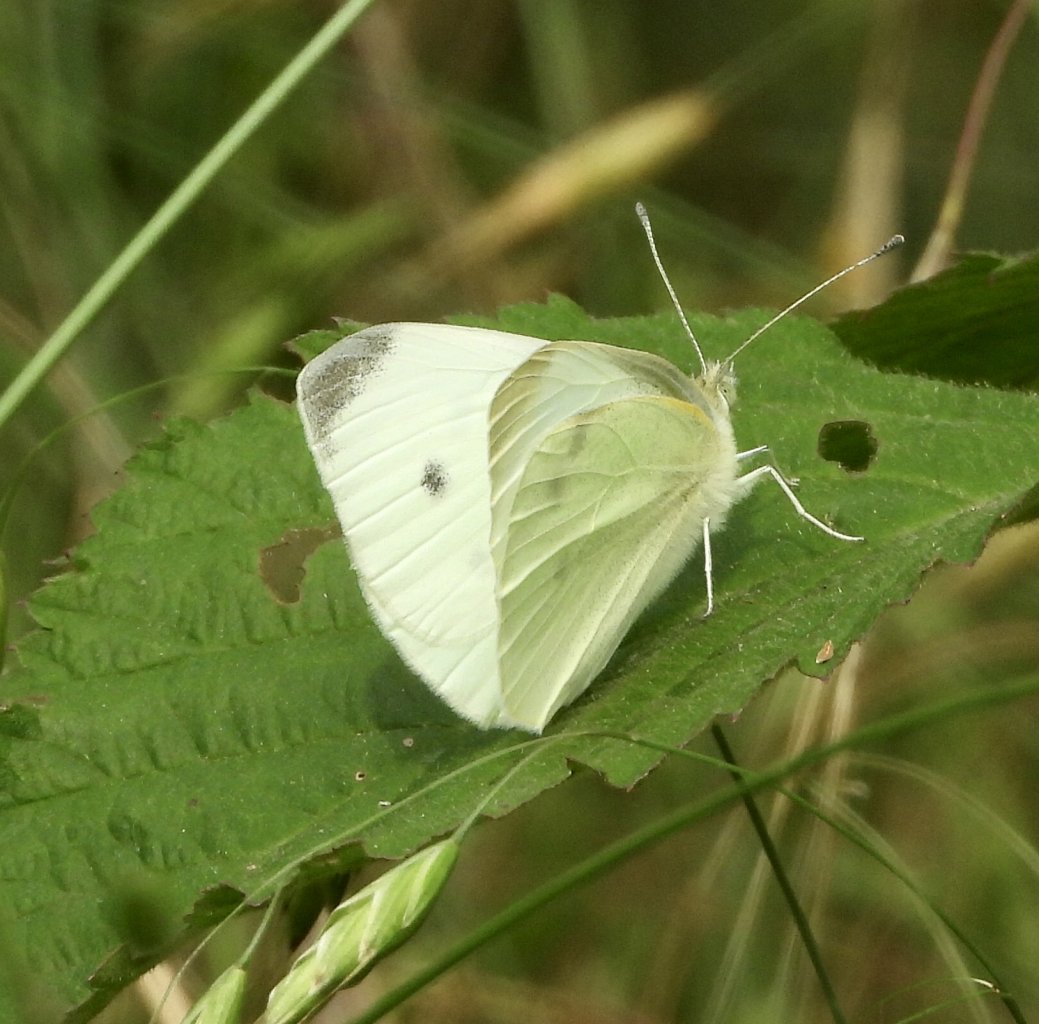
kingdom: Animalia
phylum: Arthropoda
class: Insecta
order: Lepidoptera
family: Pieridae
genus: Pieris
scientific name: Pieris rapae
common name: Cabbage White
